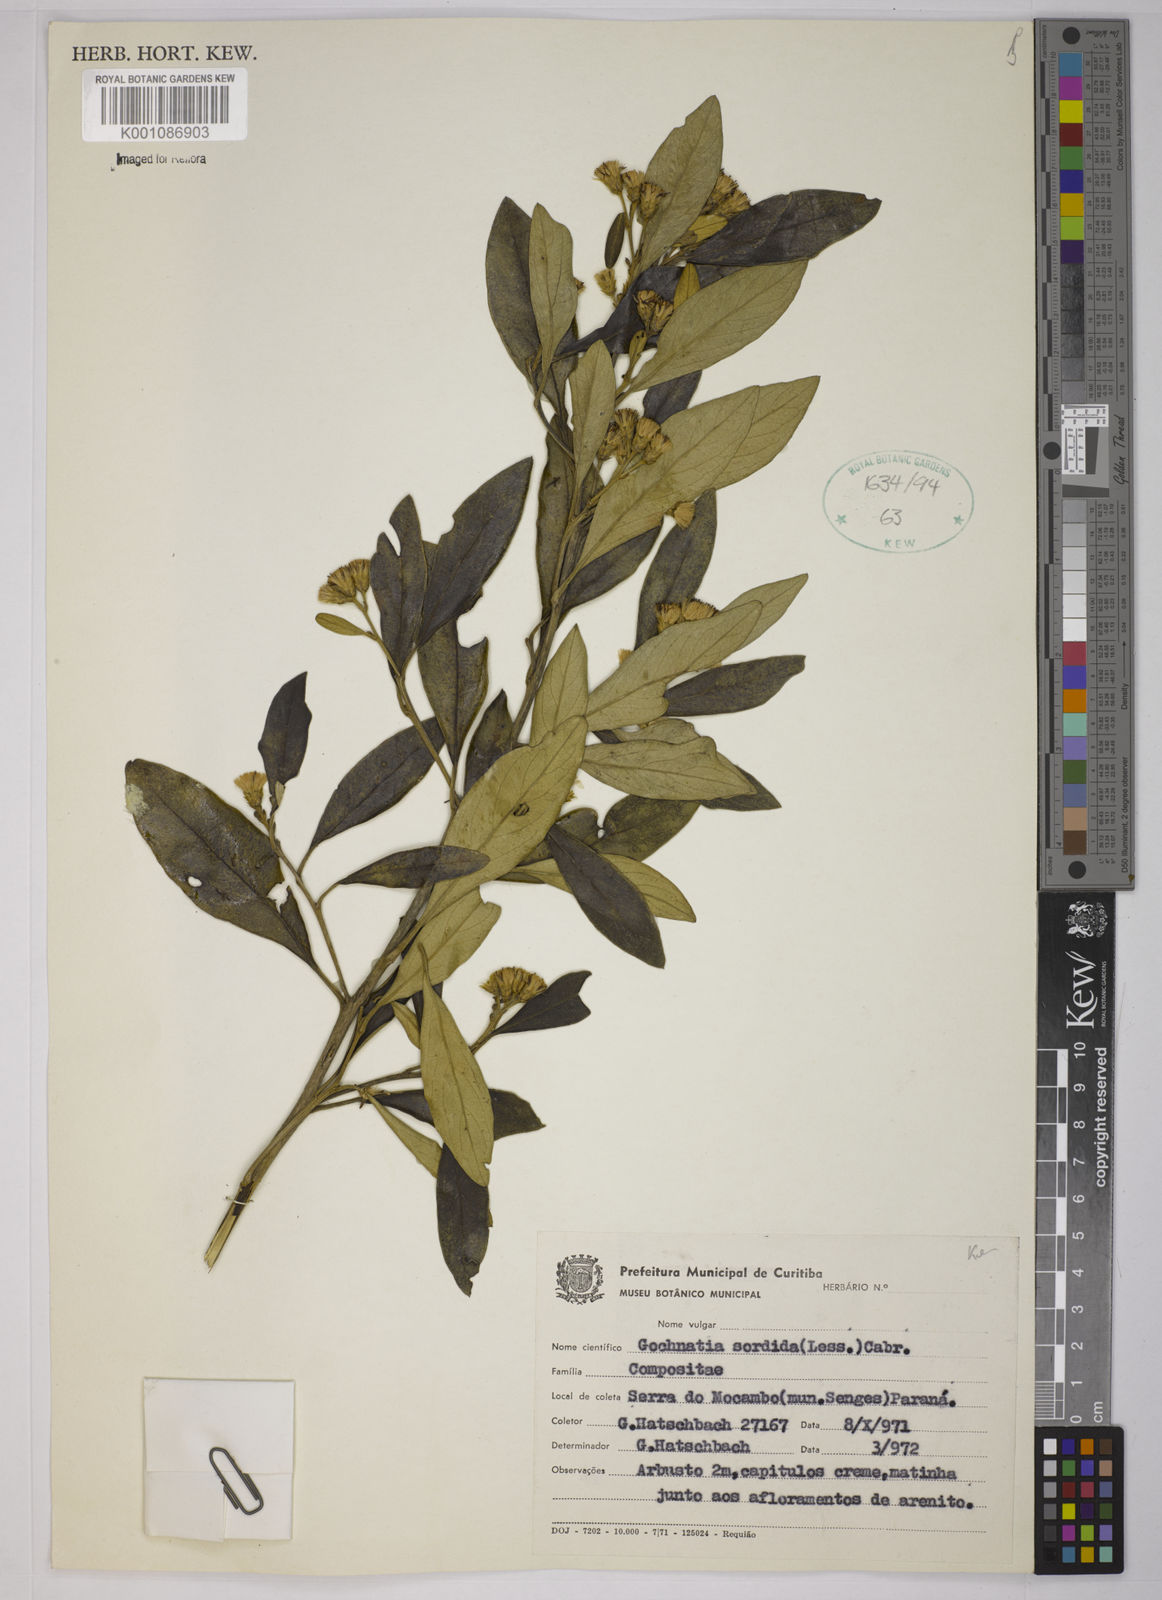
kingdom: Plantae
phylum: Tracheophyta
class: Magnoliopsida
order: Asterales
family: Asteraceae
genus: Moquiniastrum
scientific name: Moquiniastrum sordidum
